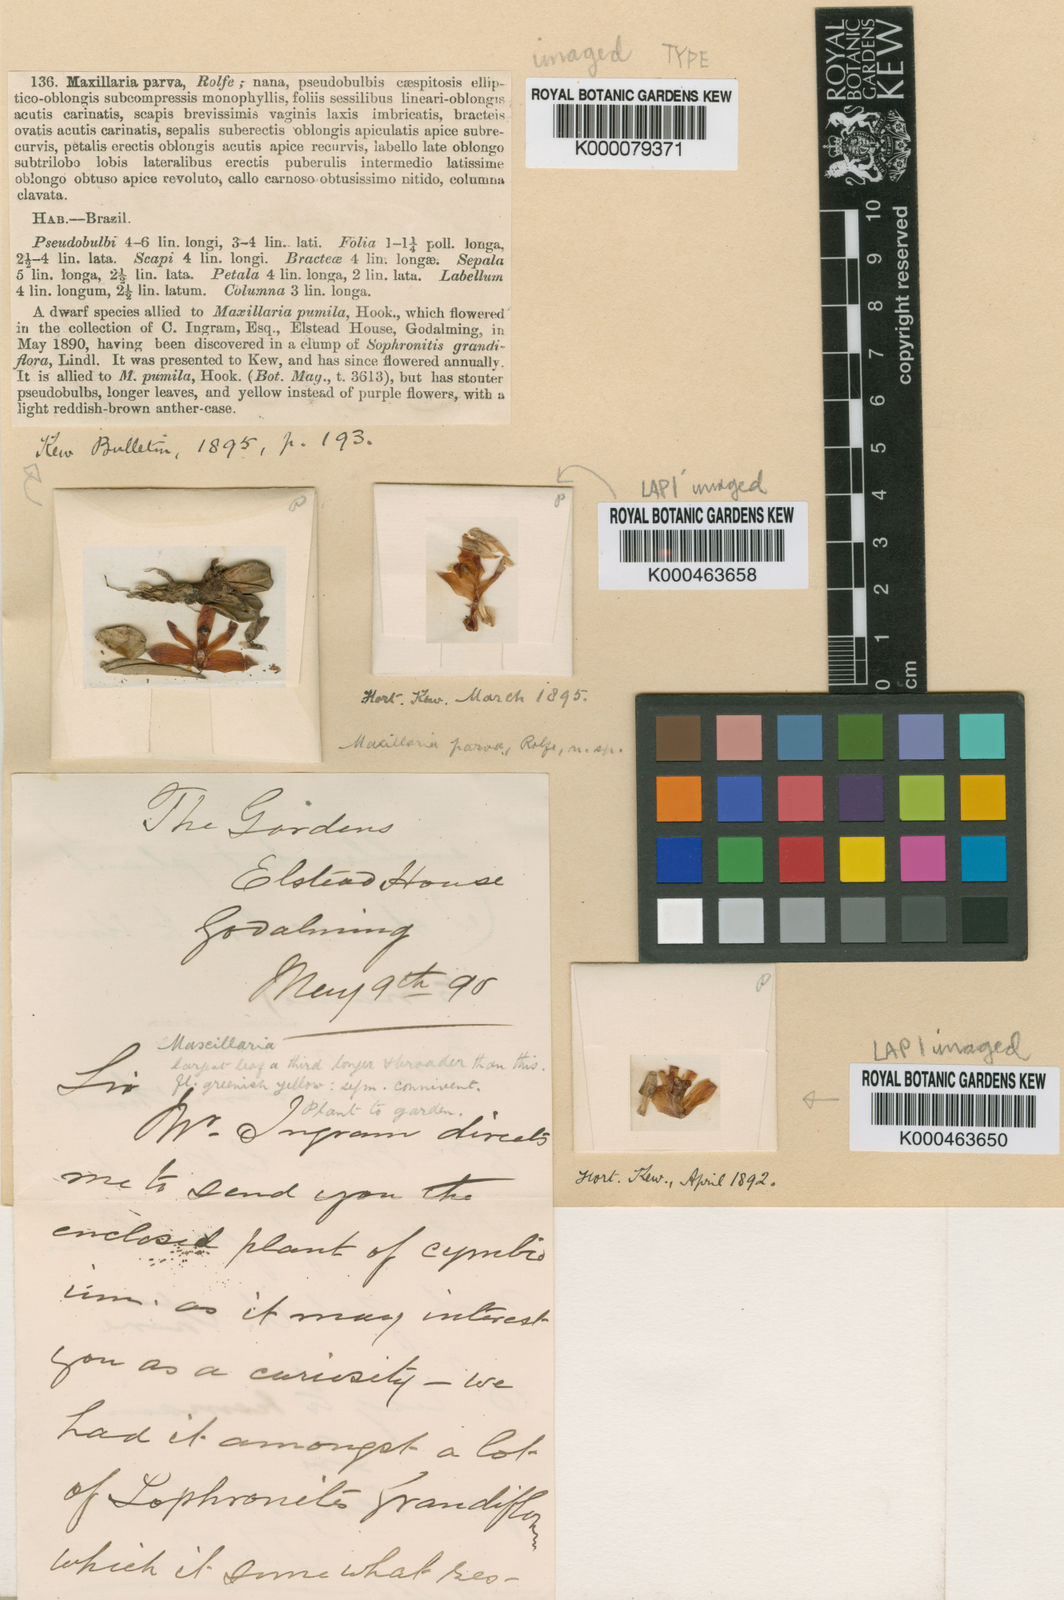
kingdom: Plantae
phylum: Tracheophyta
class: Liliopsida
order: Asparagales
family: Orchidaceae
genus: Maxillaria
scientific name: Maxillaria pumila
